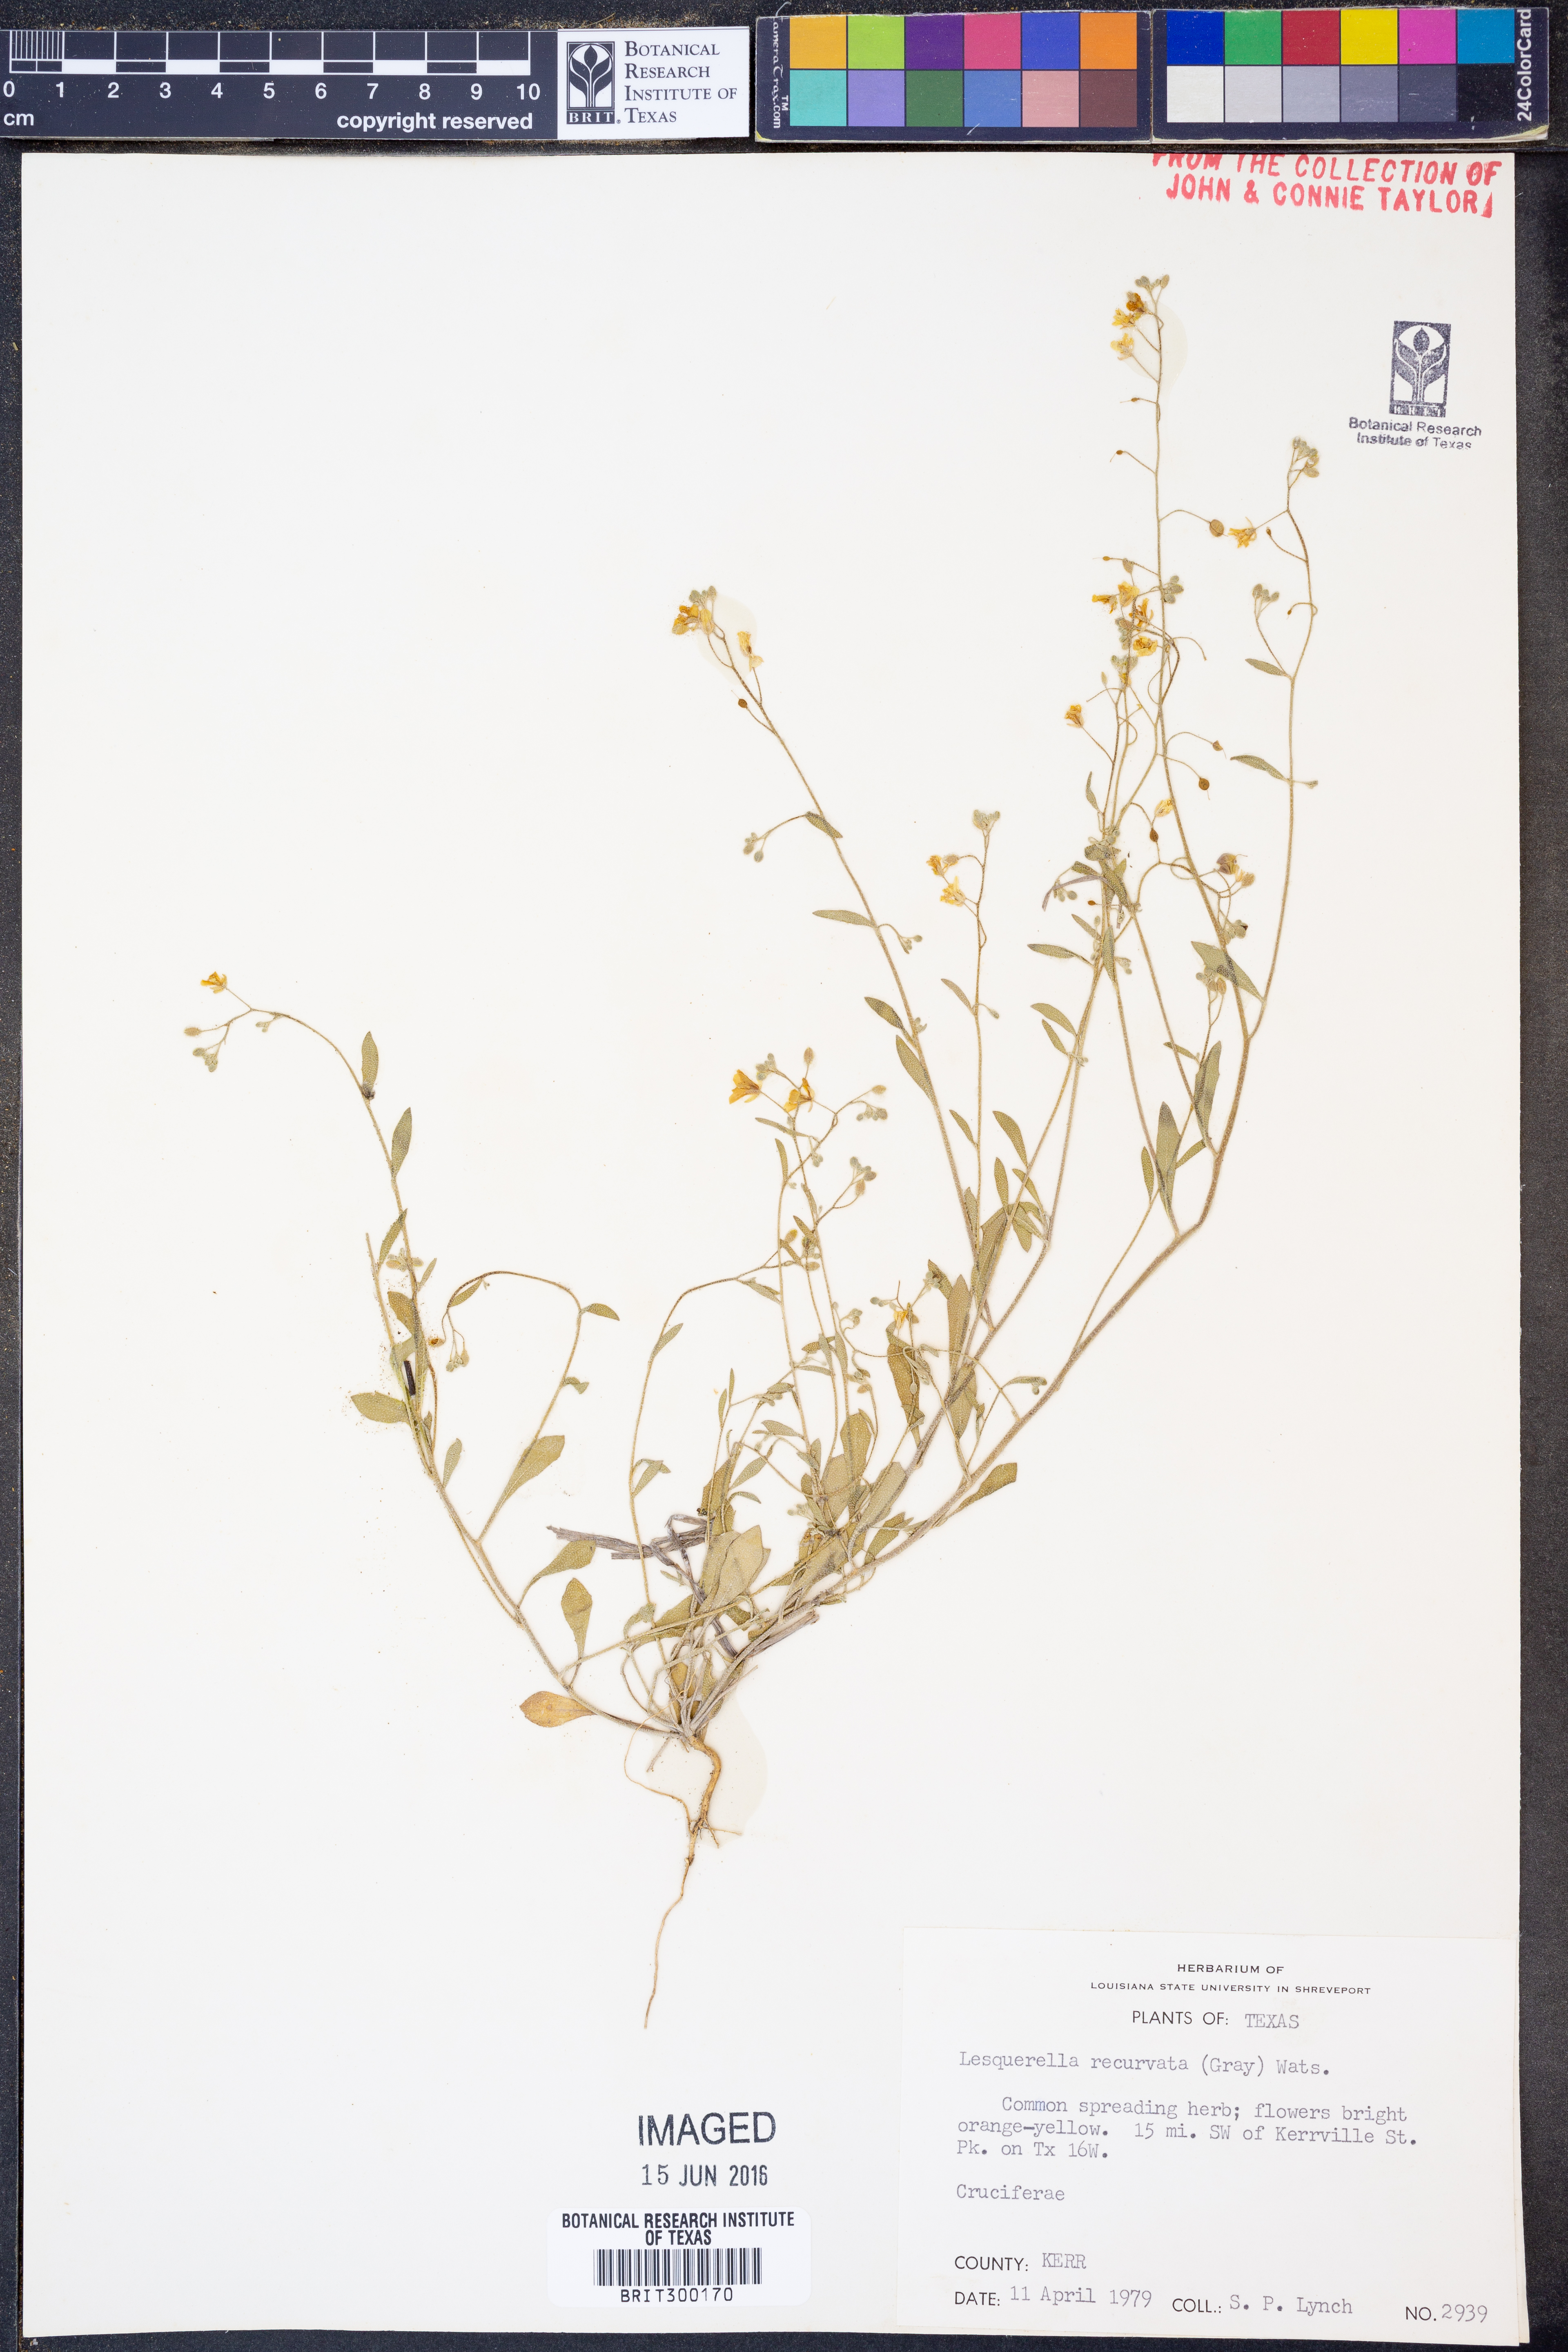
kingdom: Plantae
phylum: Tracheophyta
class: Magnoliopsida
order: Brassicales
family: Brassicaceae
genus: Physaria
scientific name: Physaria recurvata
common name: Gaslight bladderpod
